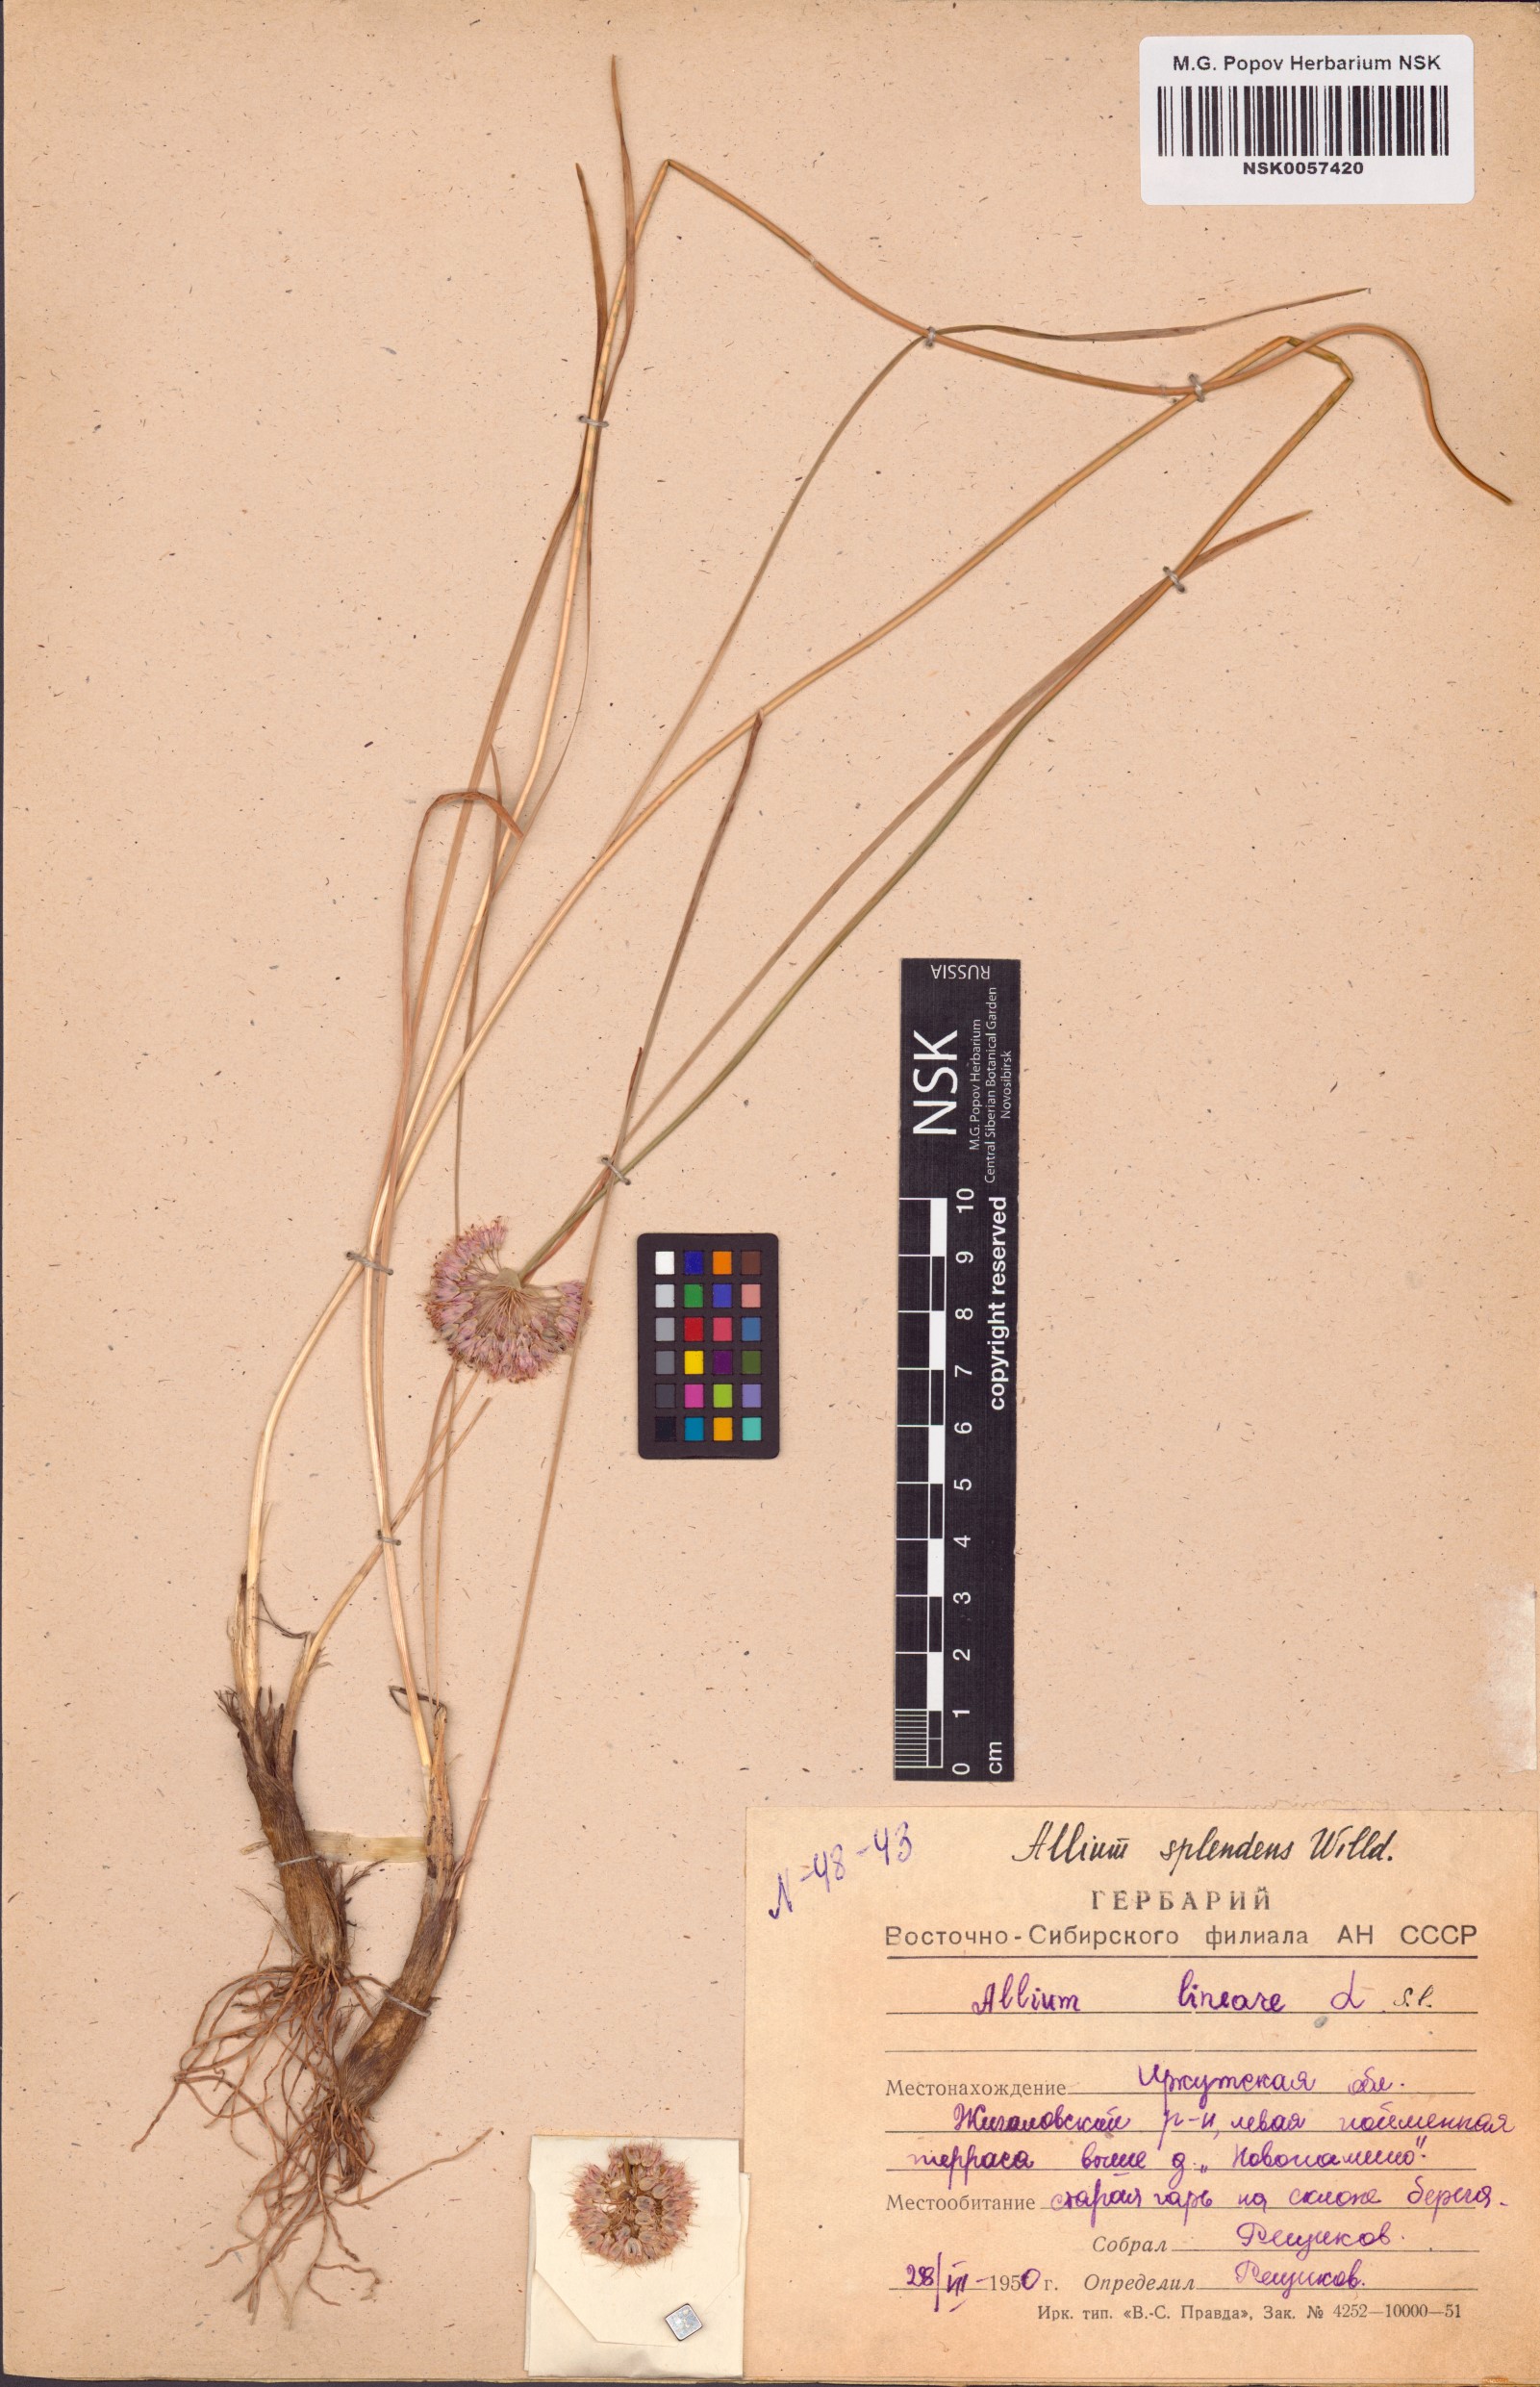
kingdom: Plantae
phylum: Tracheophyta
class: Liliopsida
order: Asparagales
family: Amaryllidaceae
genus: Allium
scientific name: Allium splendens
